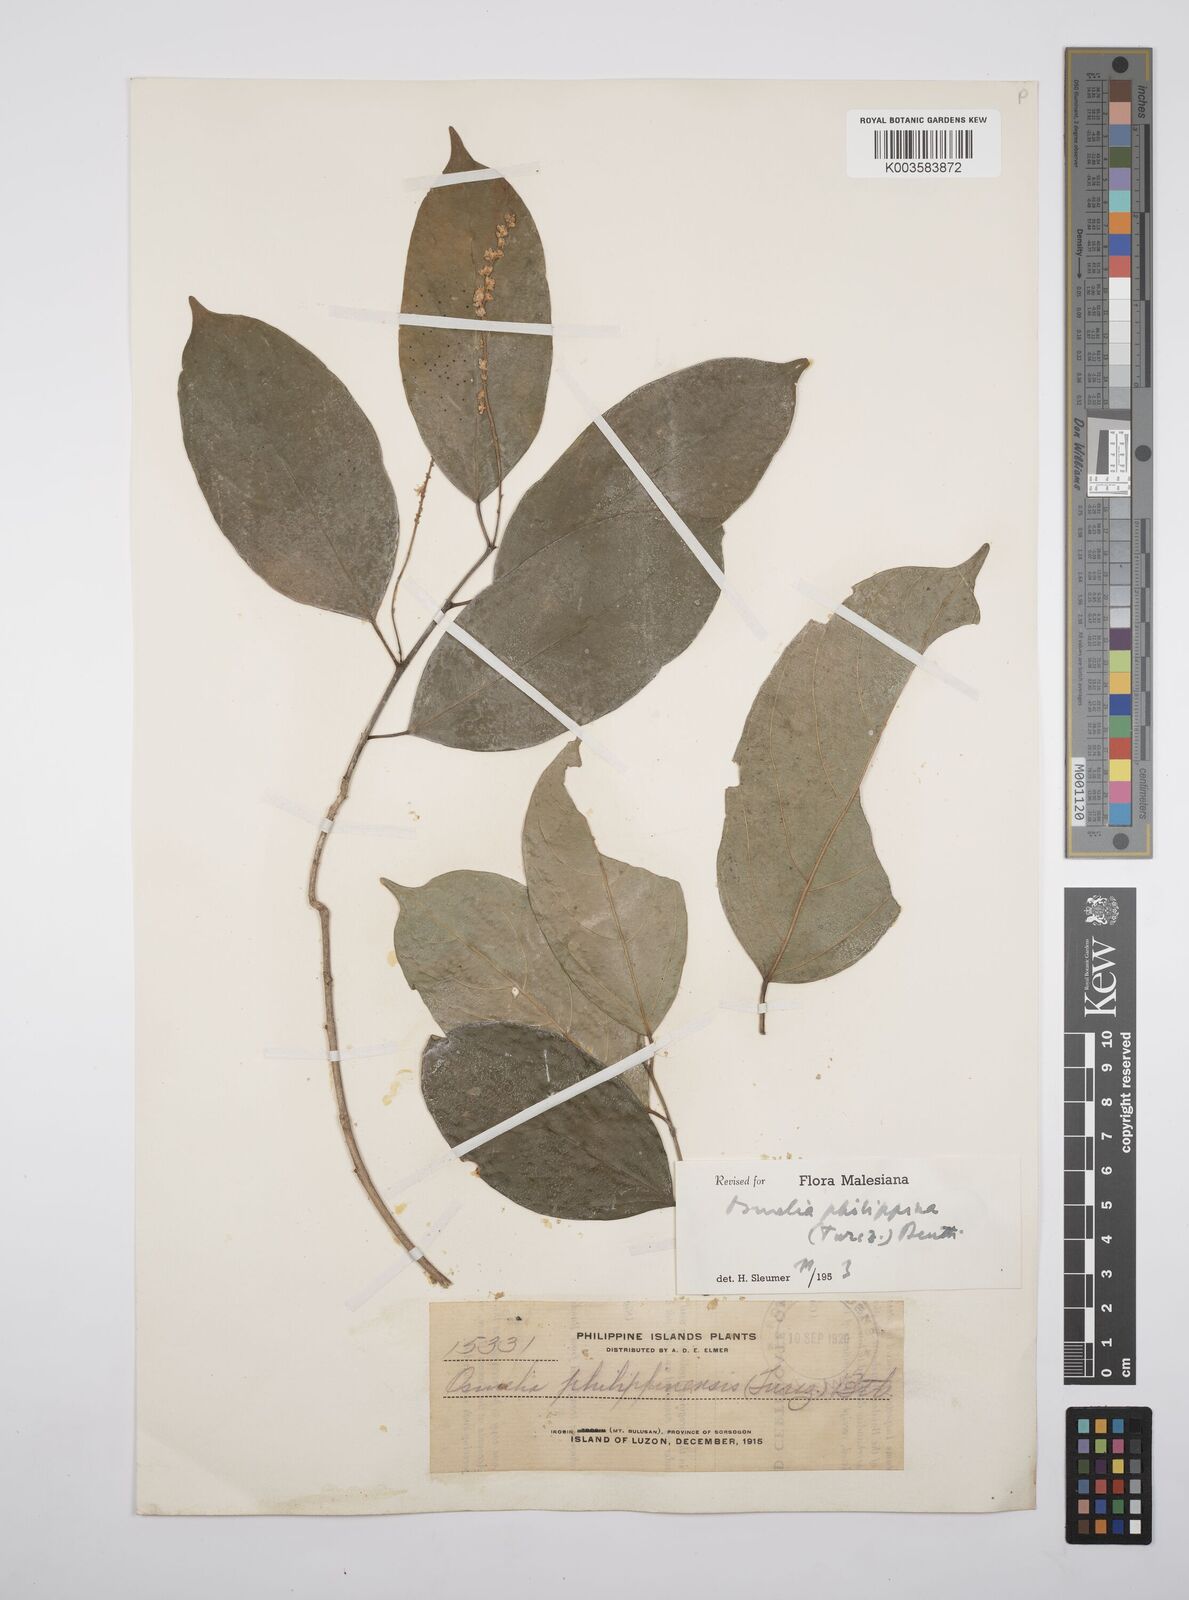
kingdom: Plantae
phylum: Tracheophyta
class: Magnoliopsida
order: Malpighiales
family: Salicaceae
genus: Osmelia
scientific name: Osmelia philippina
